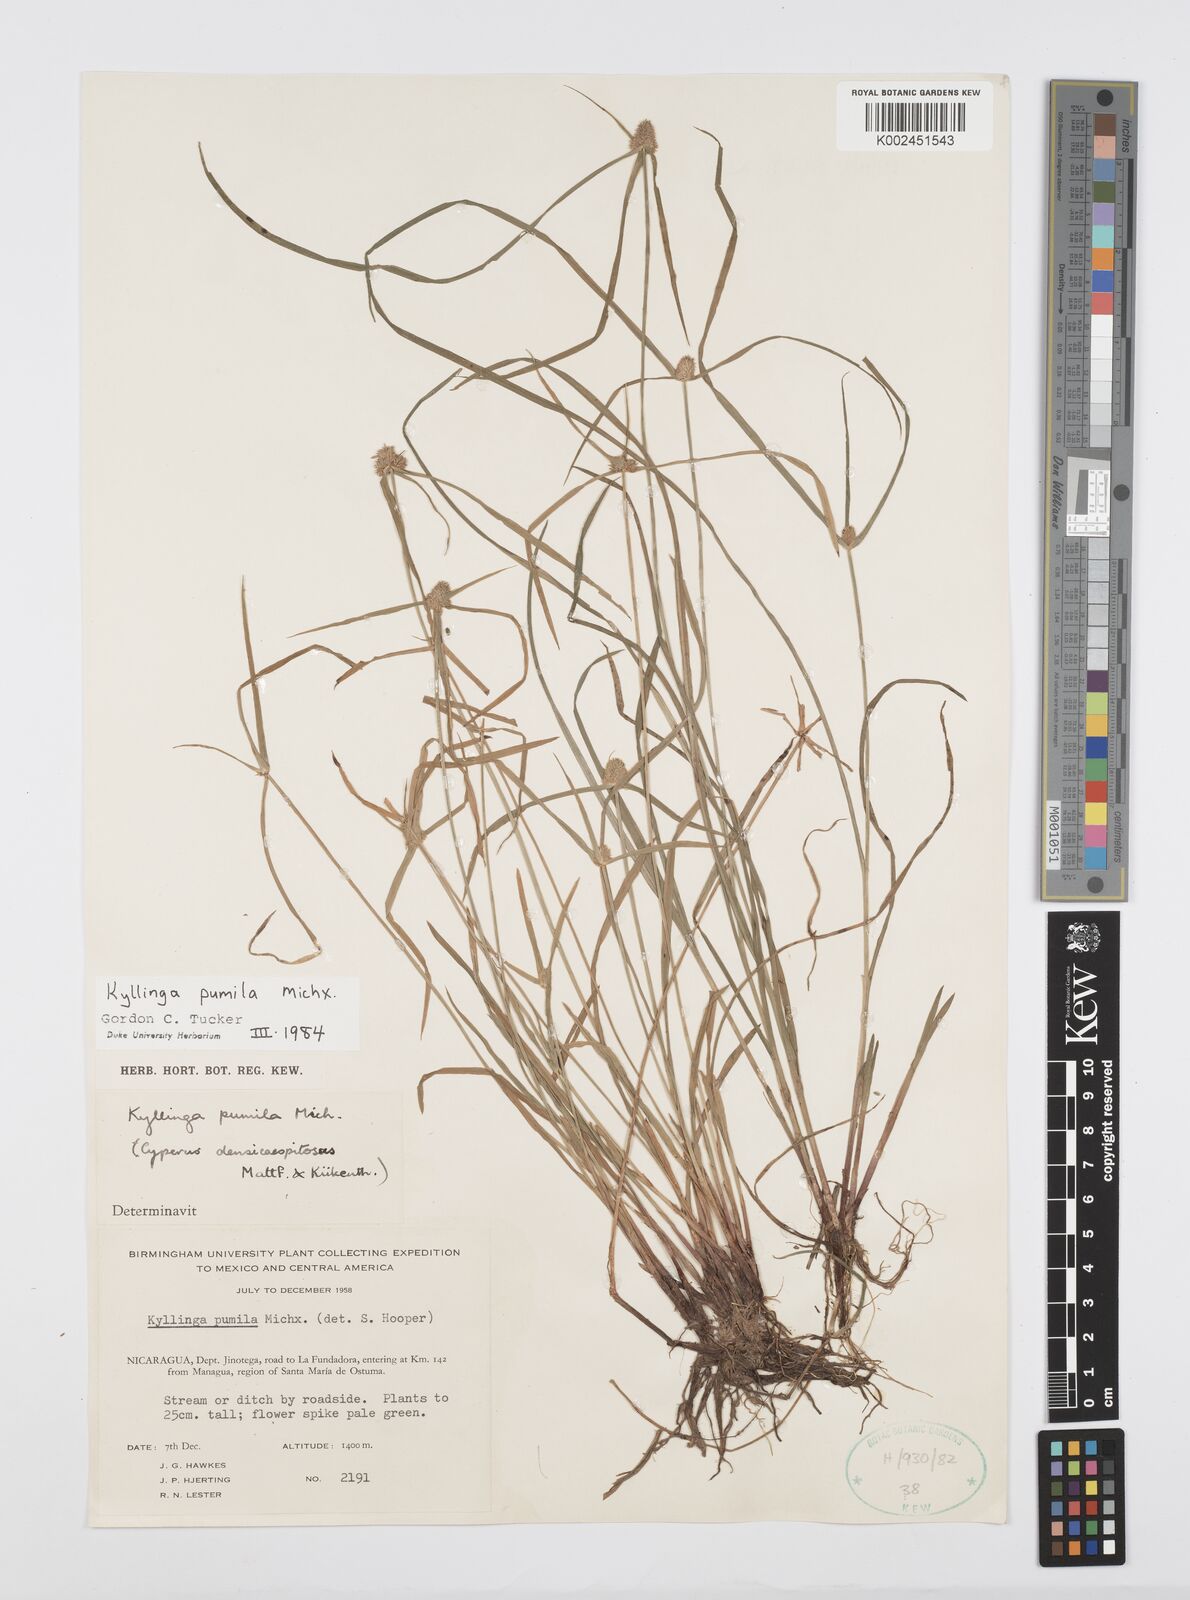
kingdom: Plantae
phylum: Tracheophyta
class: Liliopsida
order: Poales
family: Cyperaceae
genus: Cyperus
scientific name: Cyperus
